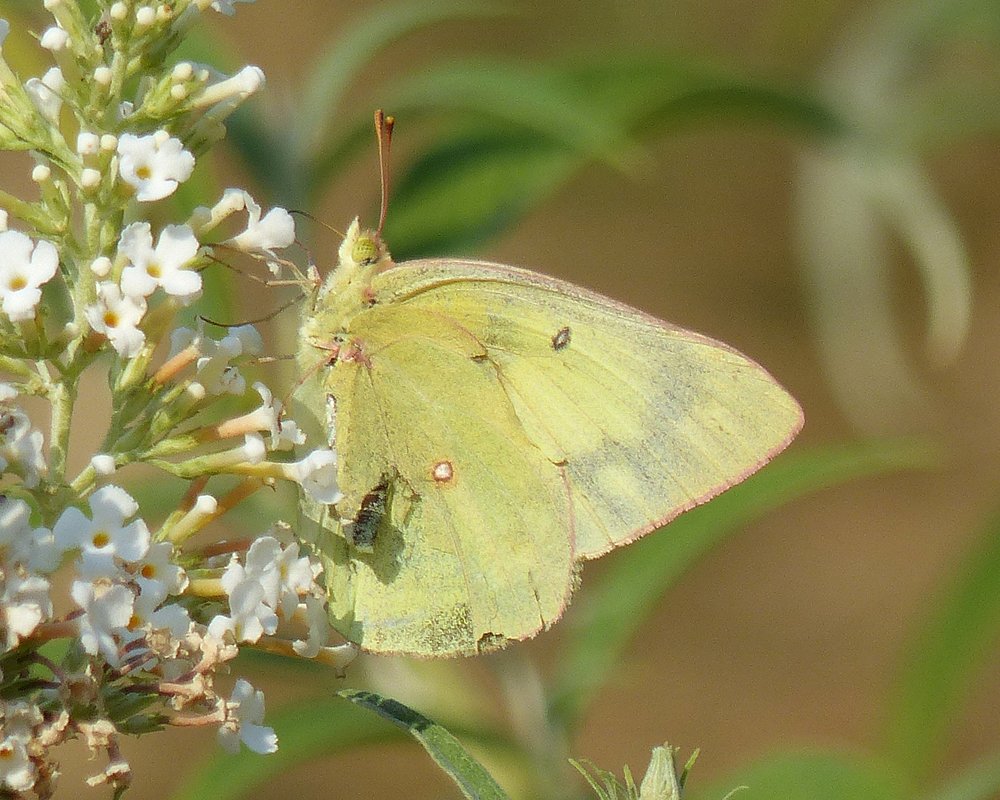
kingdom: Animalia
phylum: Arthropoda
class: Insecta
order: Lepidoptera
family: Pieridae
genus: Colias
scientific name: Colias philodice
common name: Clouded Sulphur
